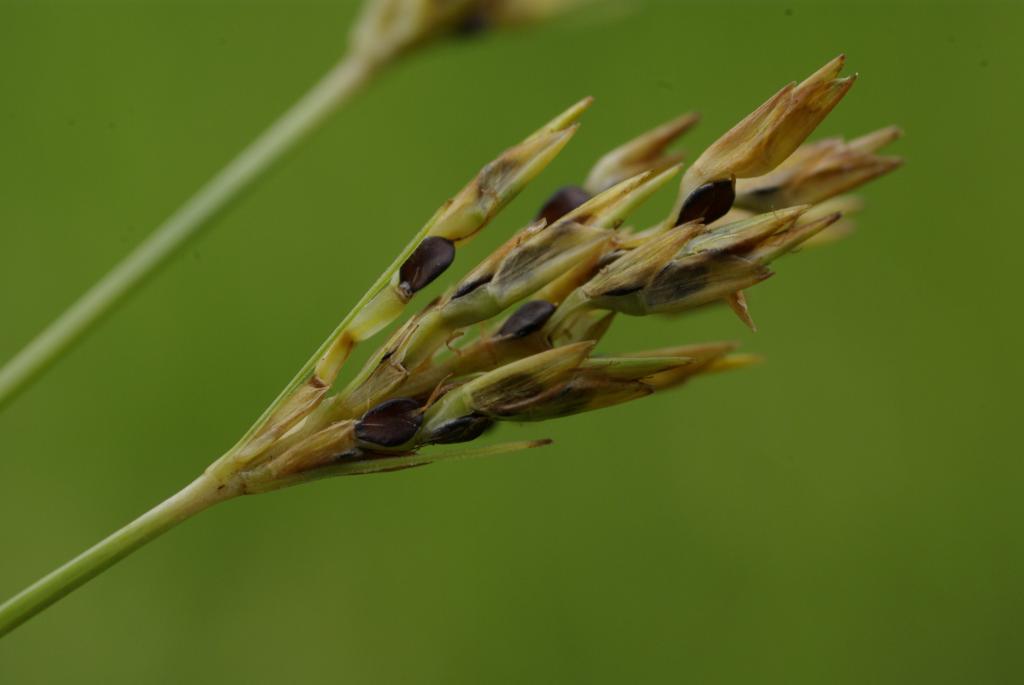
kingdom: Plantae
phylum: Tracheophyta
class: Liliopsida
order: Poales
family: Cyperaceae
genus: Cyperus
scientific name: Cyperus tenuiculmis
